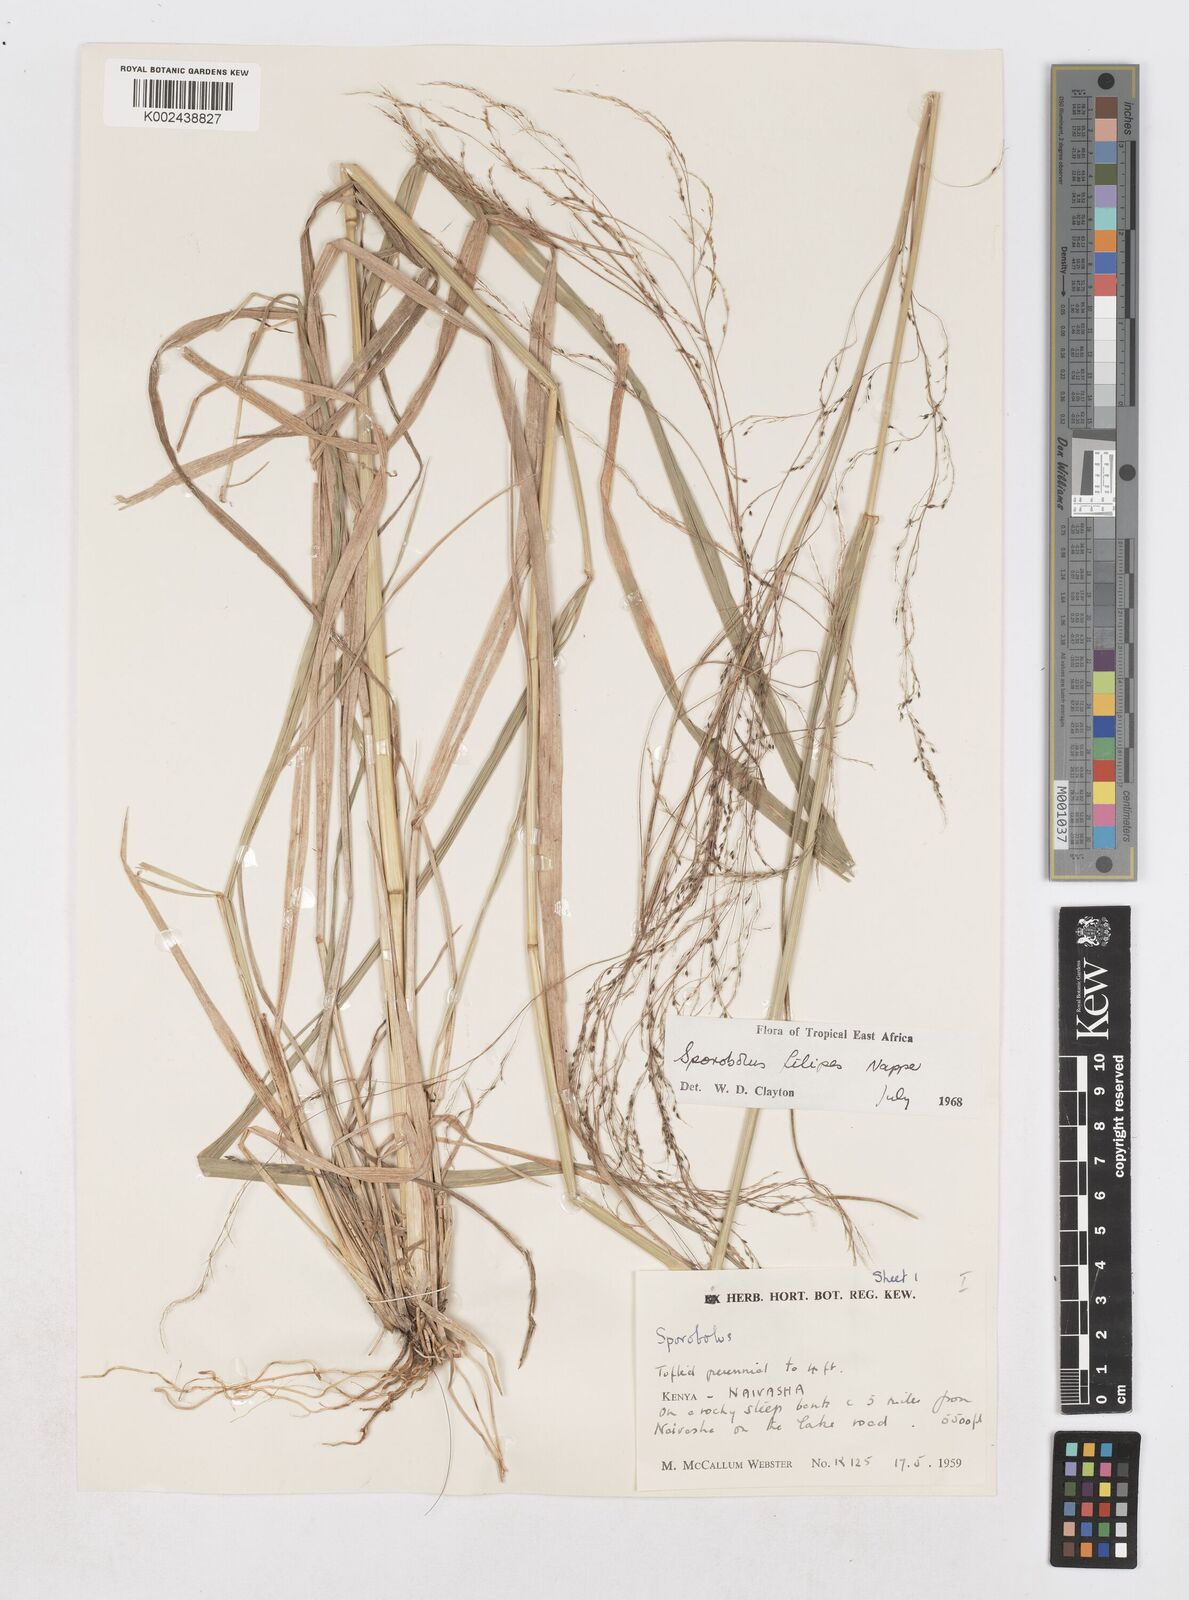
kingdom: Plantae
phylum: Tracheophyta
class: Liliopsida
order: Poales
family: Poaceae
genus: Sporobolus
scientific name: Sporobolus agrostoides
